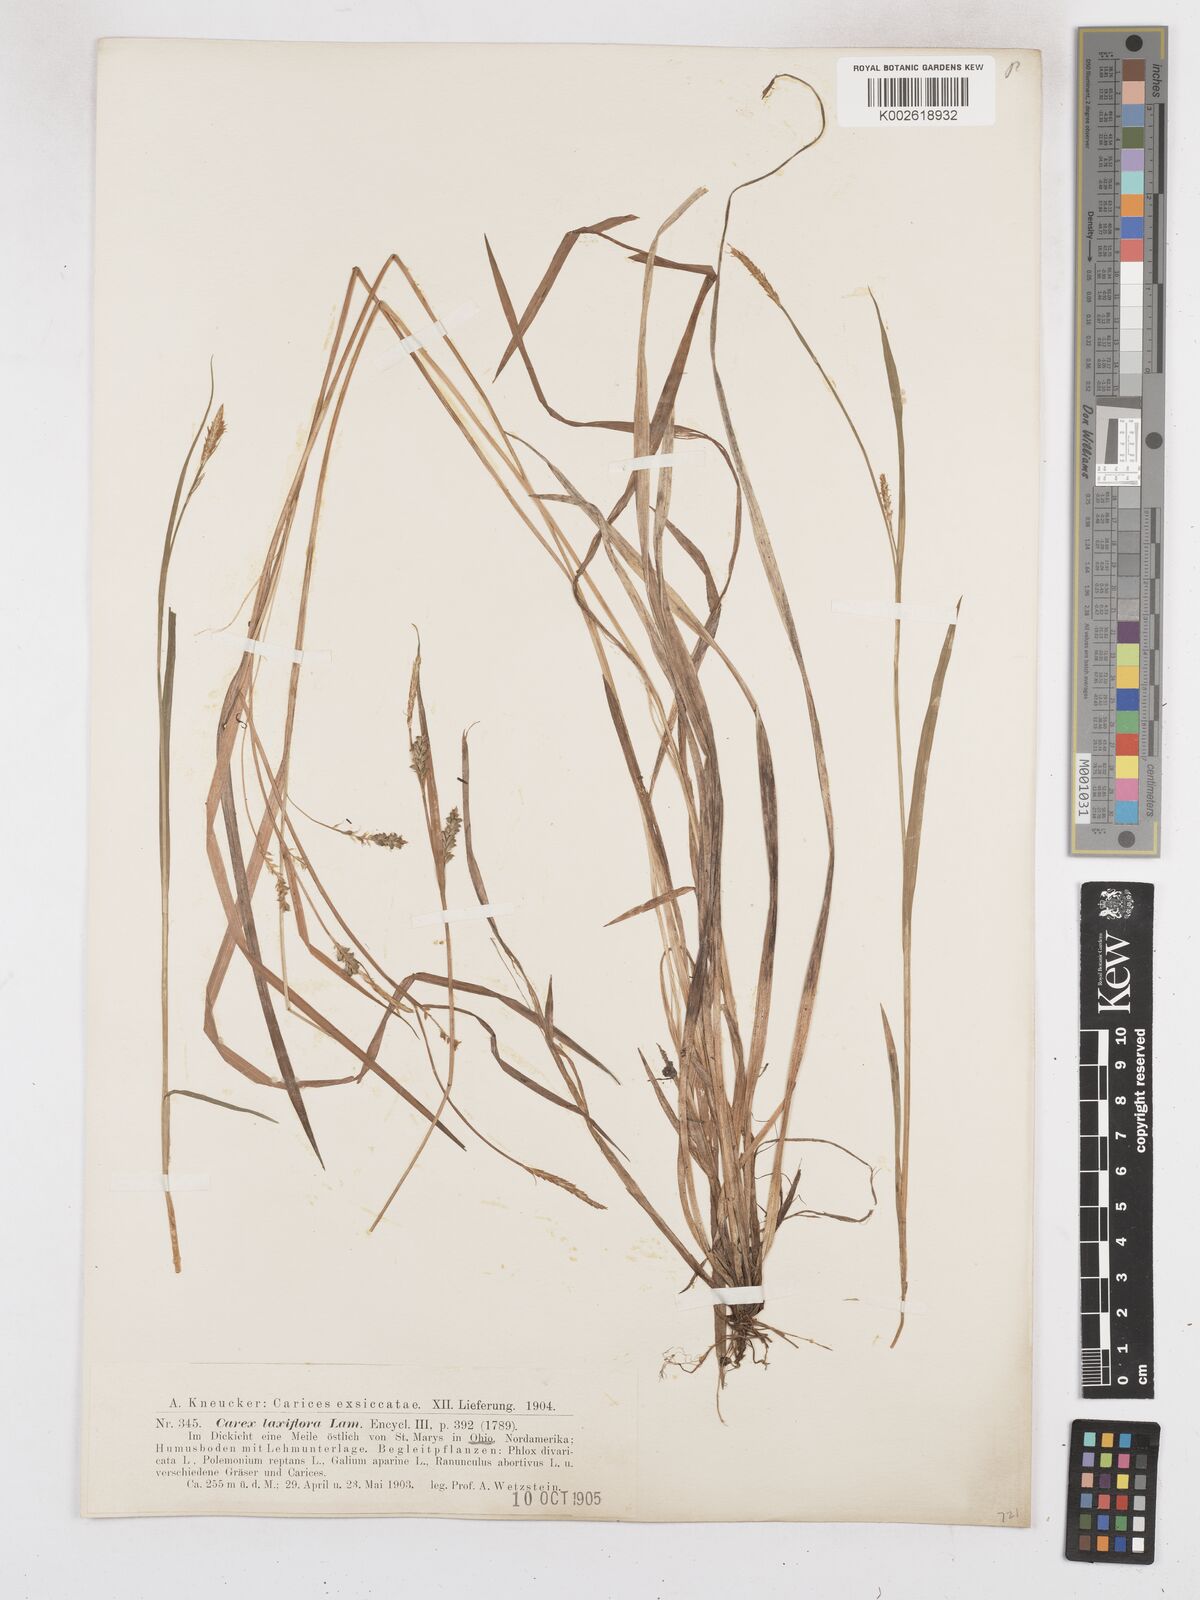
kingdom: Plantae
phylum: Tracheophyta
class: Liliopsida
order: Poales
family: Cyperaceae
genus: Carex
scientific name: Carex laxiflora
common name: Beech wood sedge
